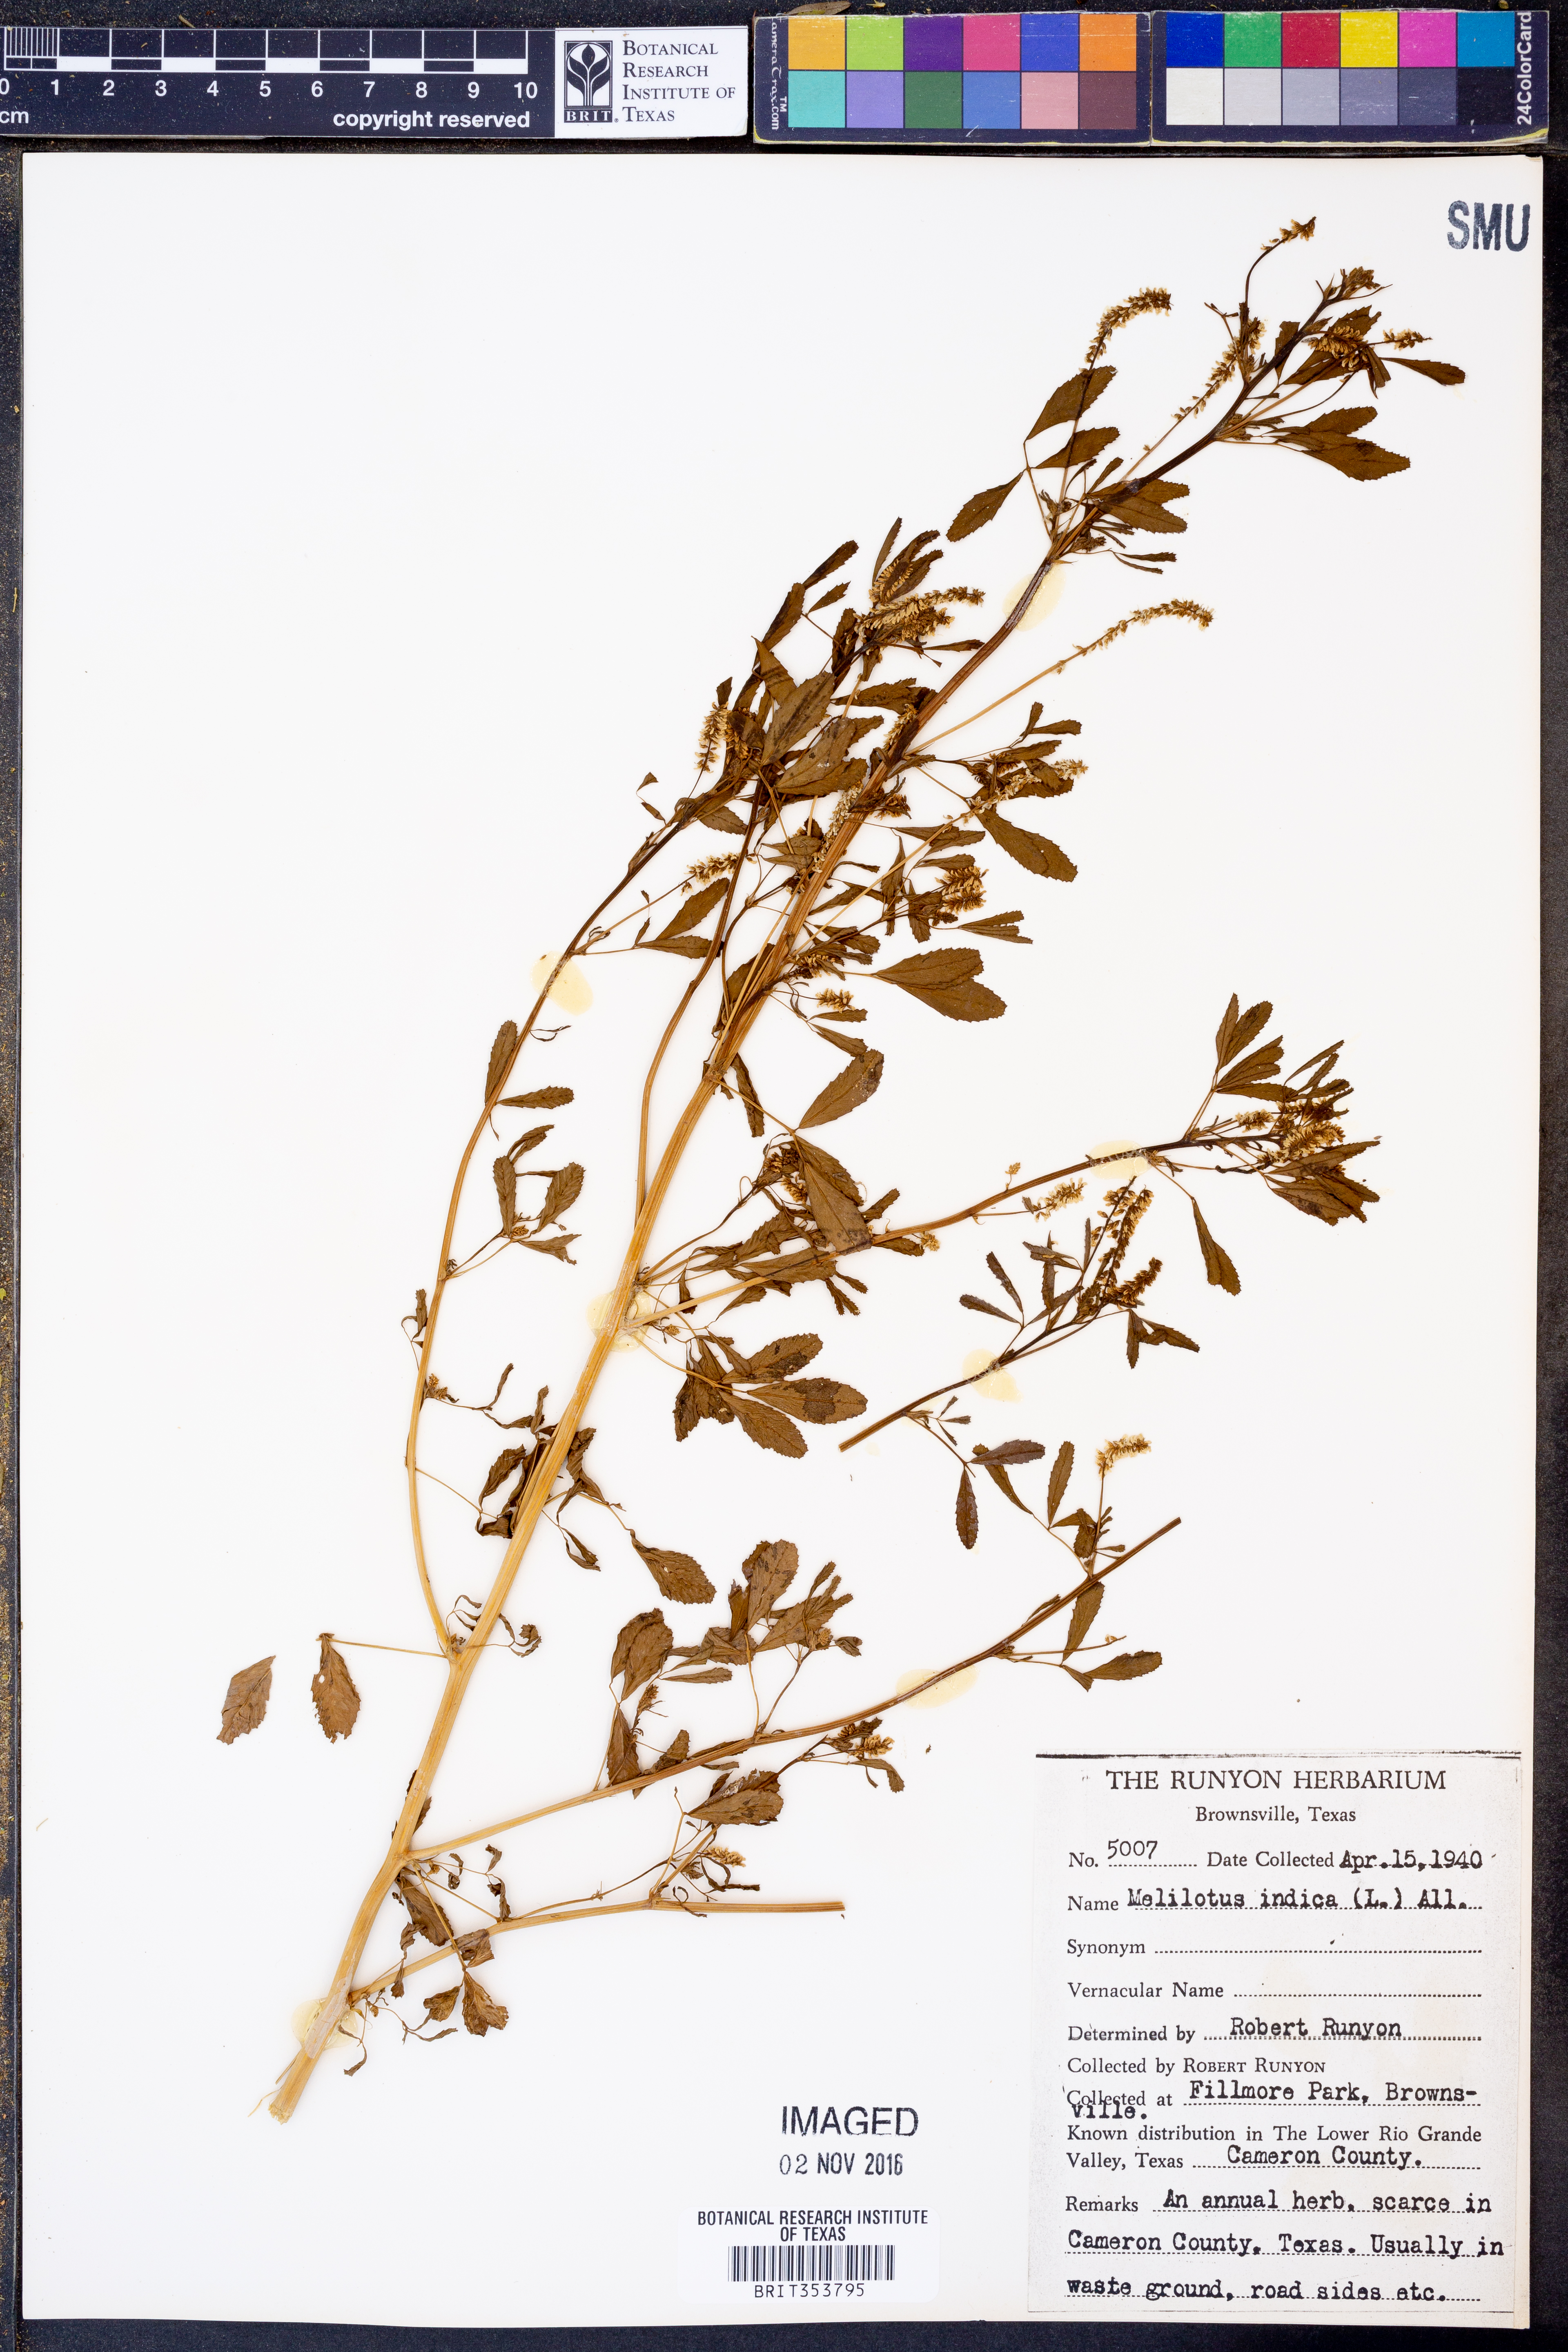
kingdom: Plantae
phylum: Tracheophyta
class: Magnoliopsida
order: Fabales
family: Fabaceae
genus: Melilotus
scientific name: Melilotus indicus
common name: Small melilot
